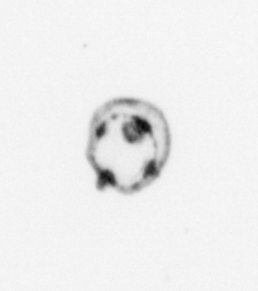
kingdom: Chromista
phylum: Myzozoa
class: Dinophyceae
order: Noctilucales
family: Noctilucaceae
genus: Noctiluca
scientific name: Noctiluca scintillans
